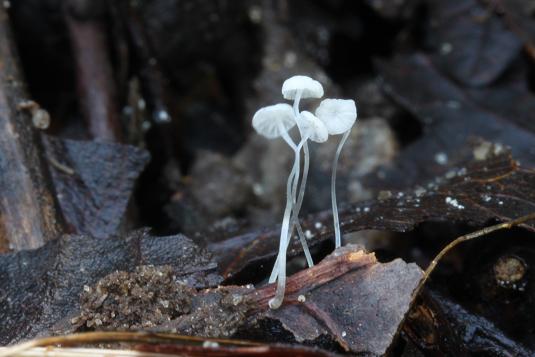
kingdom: Fungi
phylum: Basidiomycota
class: Agaricomycetes
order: Agaricales
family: Mycenaceae
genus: Mycena
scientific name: Mycena mucor
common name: frynseskivet huesvamp
